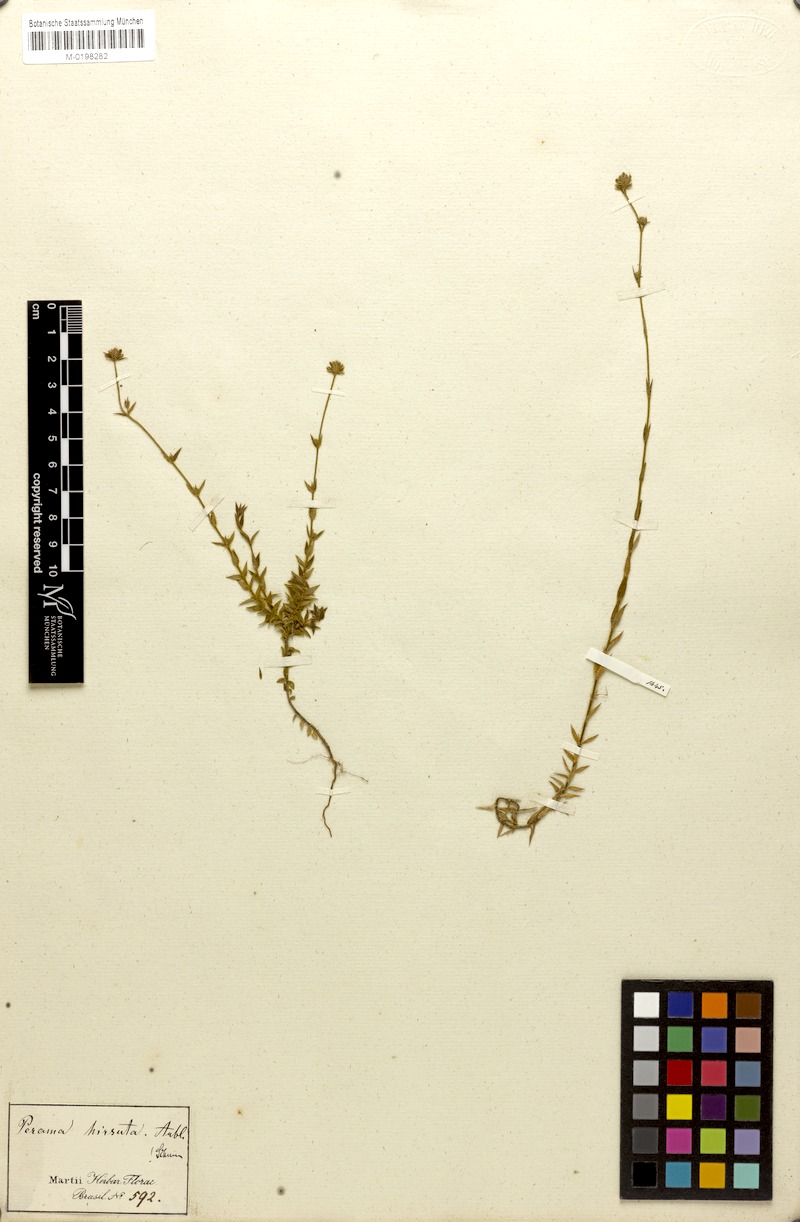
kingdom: Plantae
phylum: Tracheophyta
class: Magnoliopsida
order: Gentianales
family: Rubiaceae
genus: Perama
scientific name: Perama hirsuta
